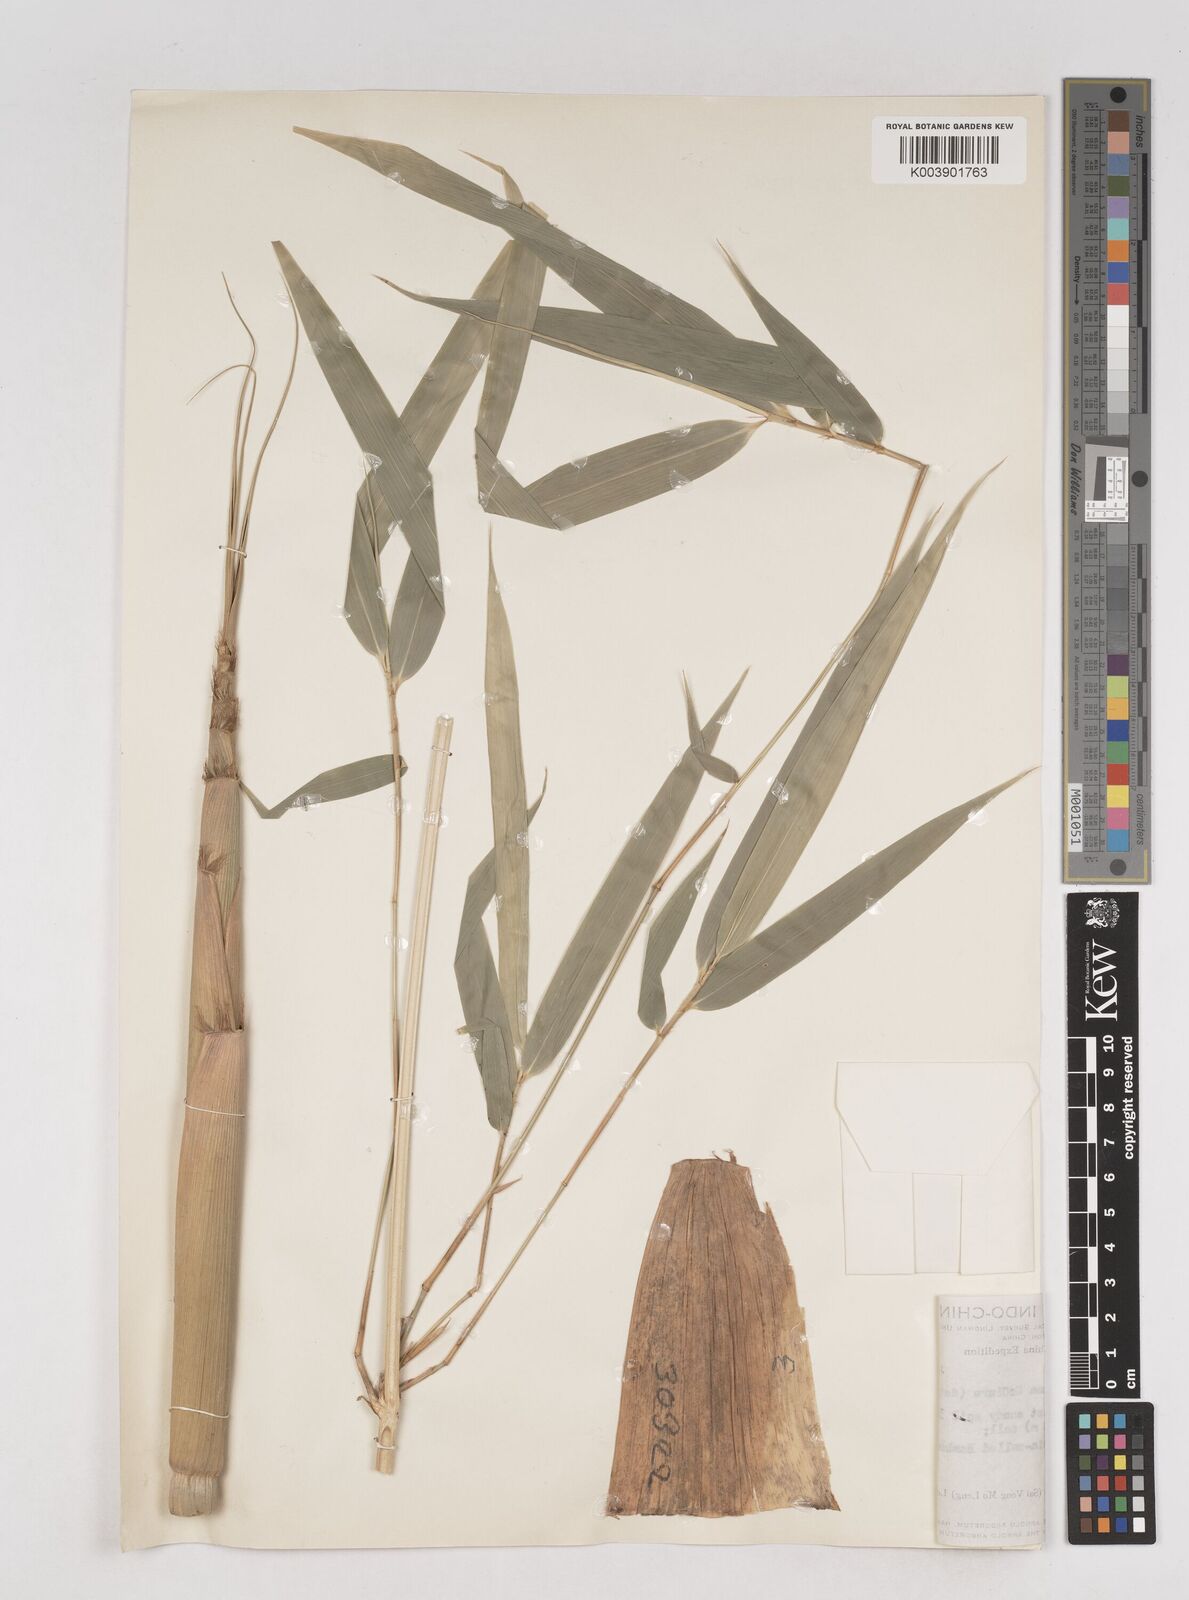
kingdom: Plantae
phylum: Tracheophyta
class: Liliopsida
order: Poales
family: Poaceae
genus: Schizostachyum
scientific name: Schizostachyum pseudolima
